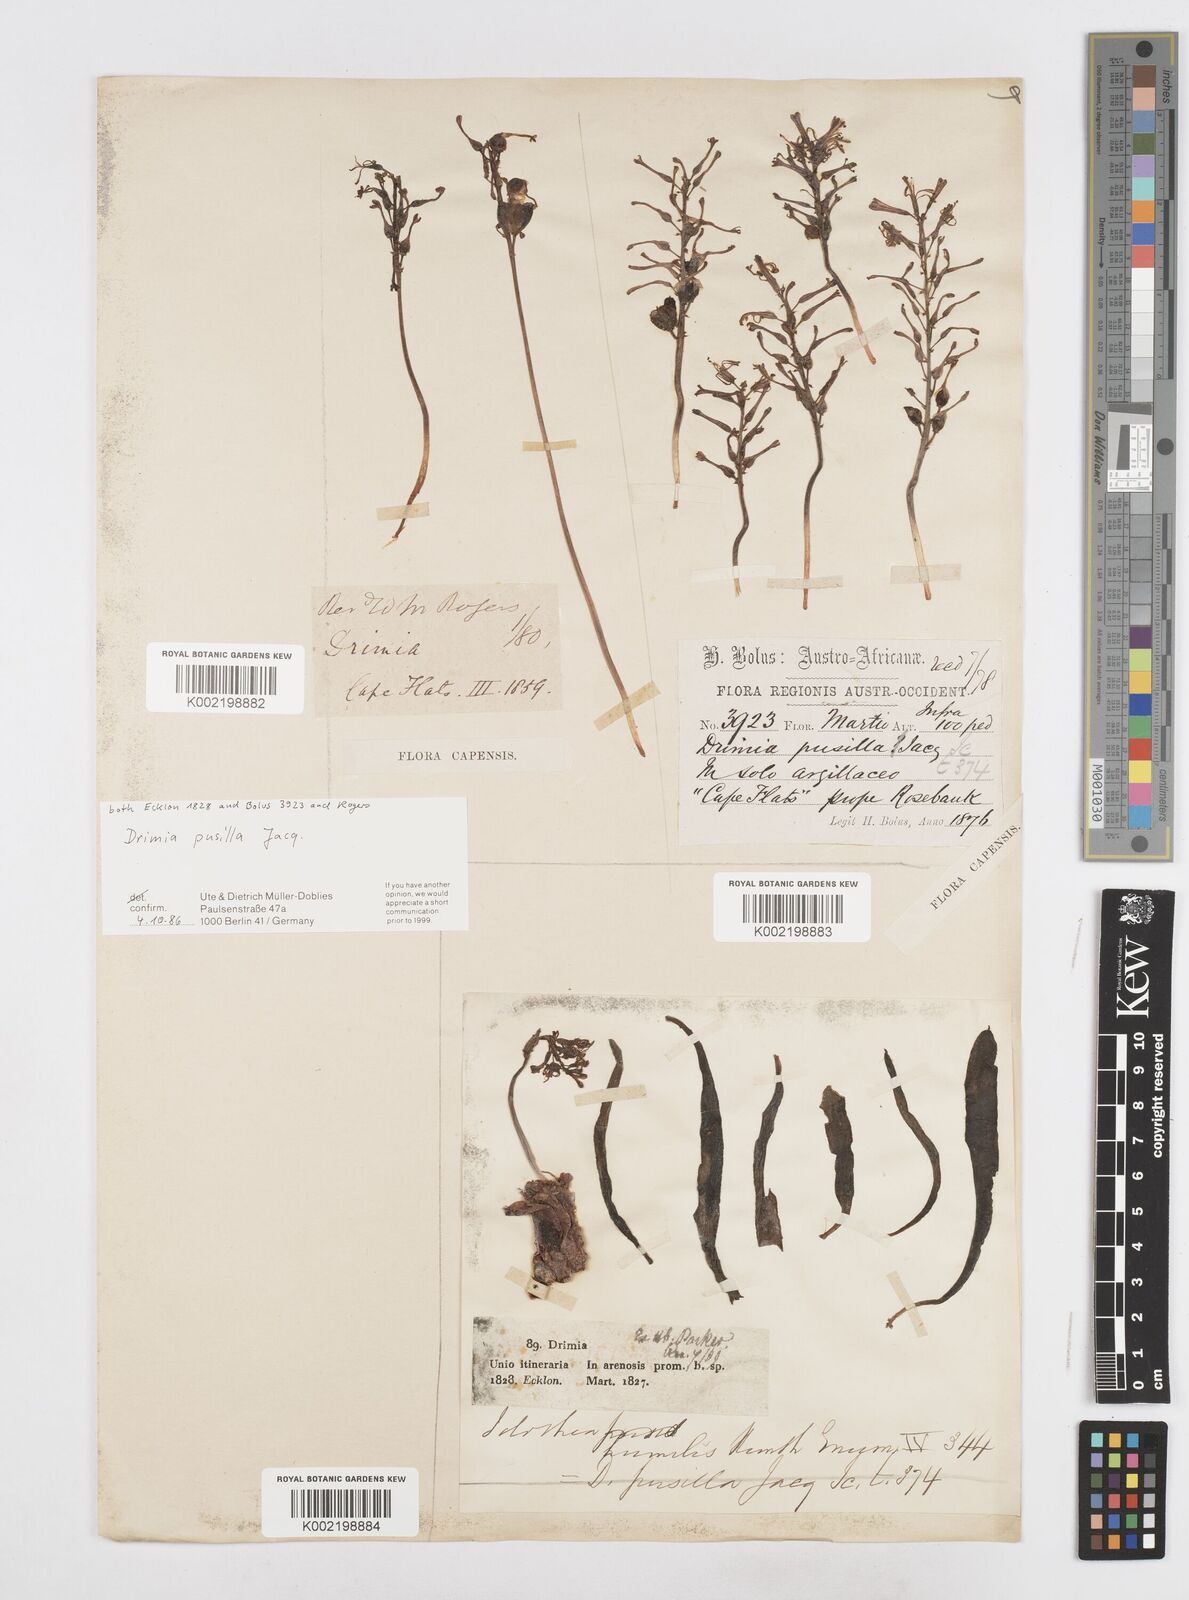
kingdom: Plantae
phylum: Tracheophyta
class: Liliopsida
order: Asparagales
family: Asparagaceae
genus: Drimia
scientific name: Drimia elata
